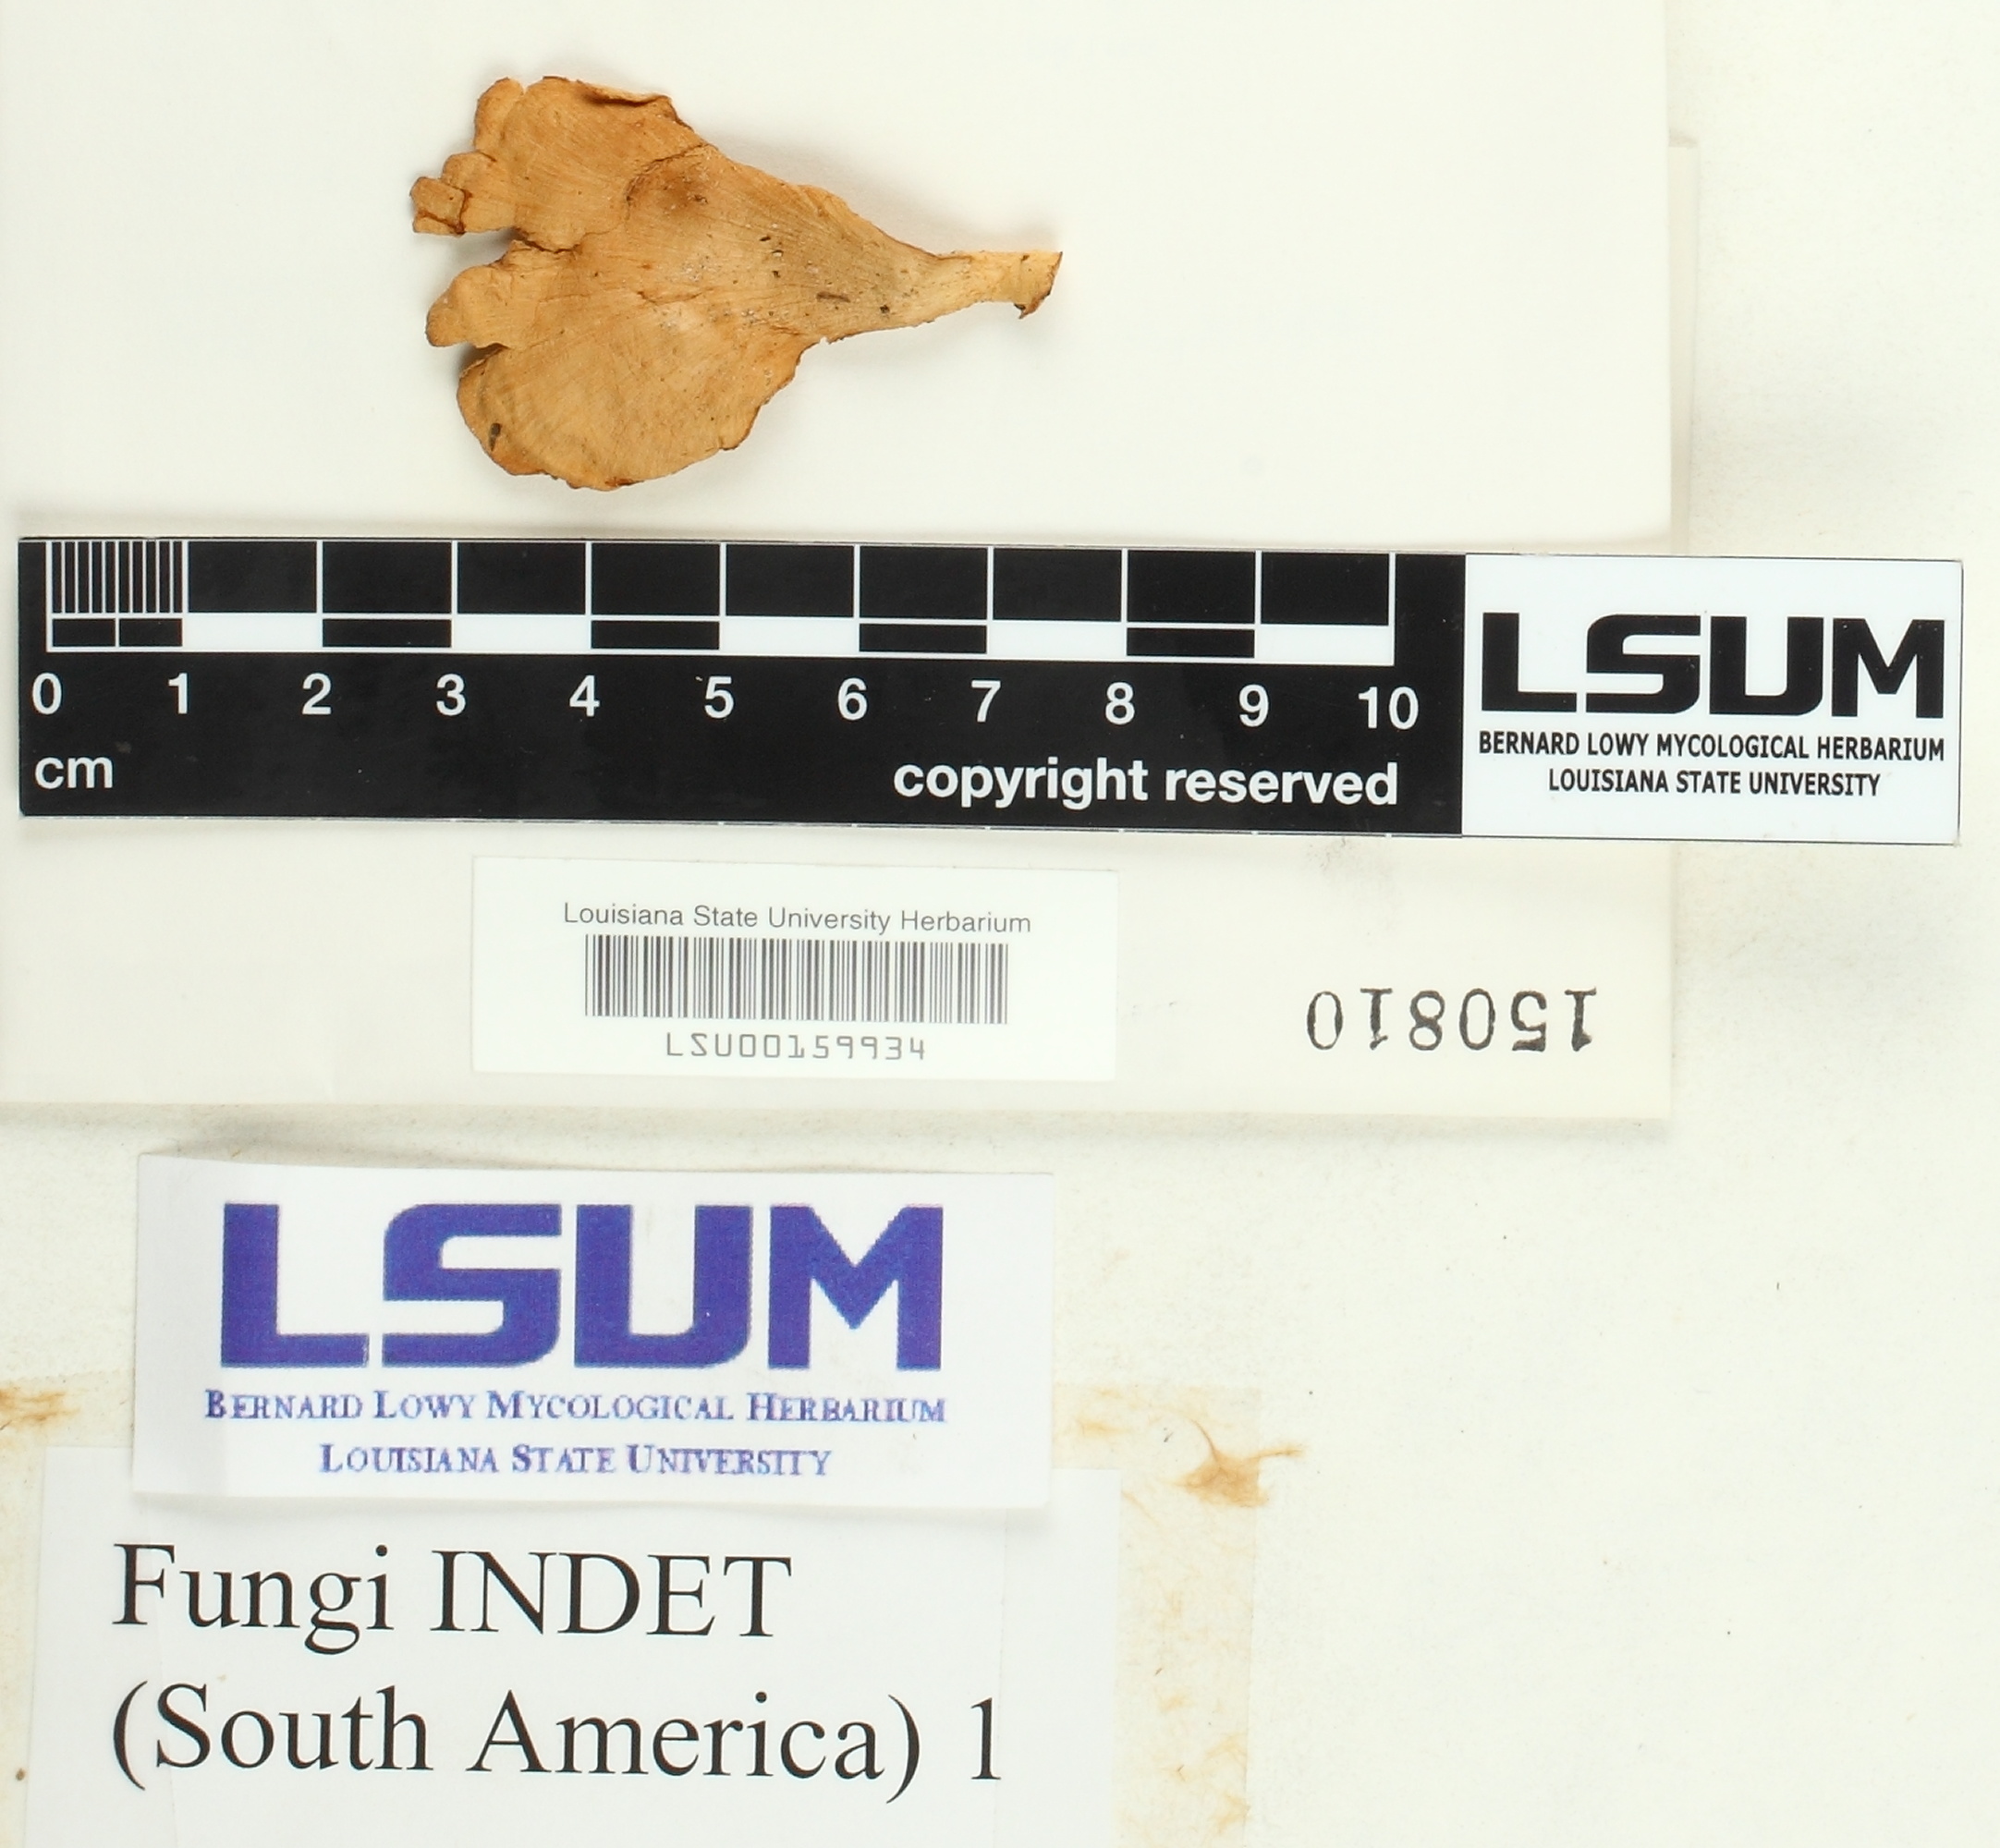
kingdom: Fungi
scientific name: Fungi
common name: Fungi
